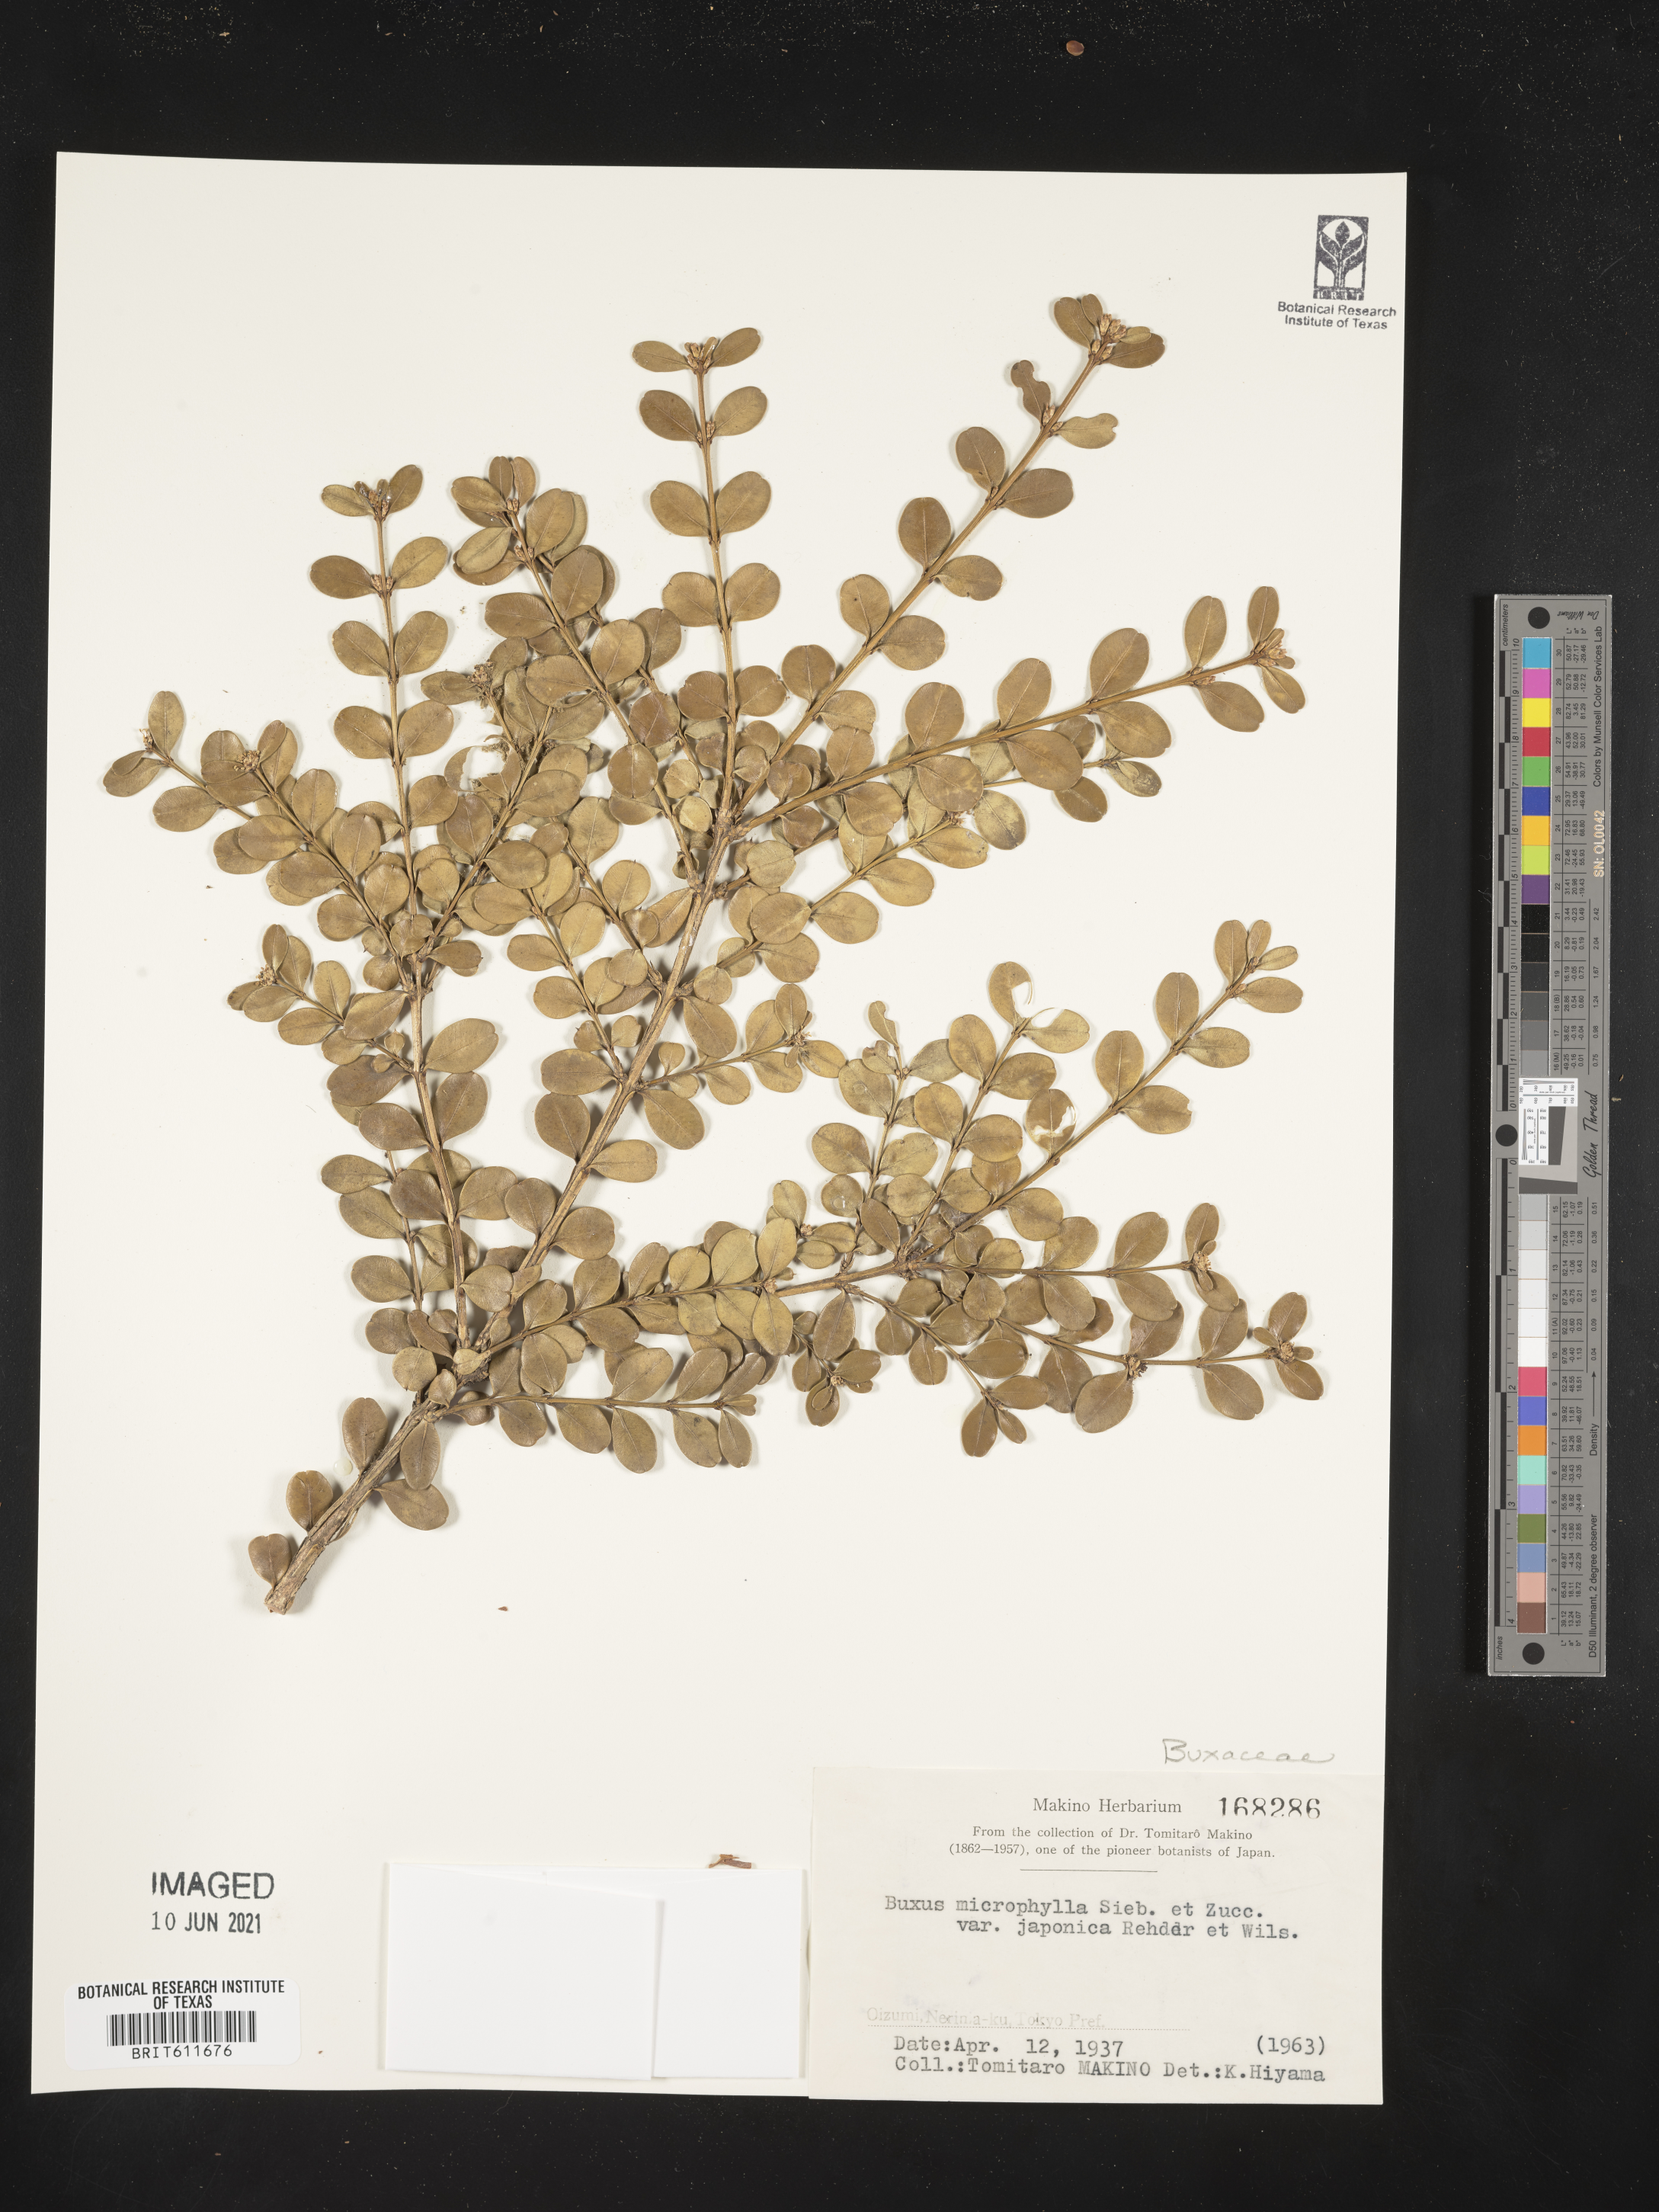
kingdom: Plantae
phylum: Tracheophyta
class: Magnoliopsida
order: Buxales
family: Buxaceae
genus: Buxus
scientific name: Buxus microphylla
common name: Littleleaf boxwood
